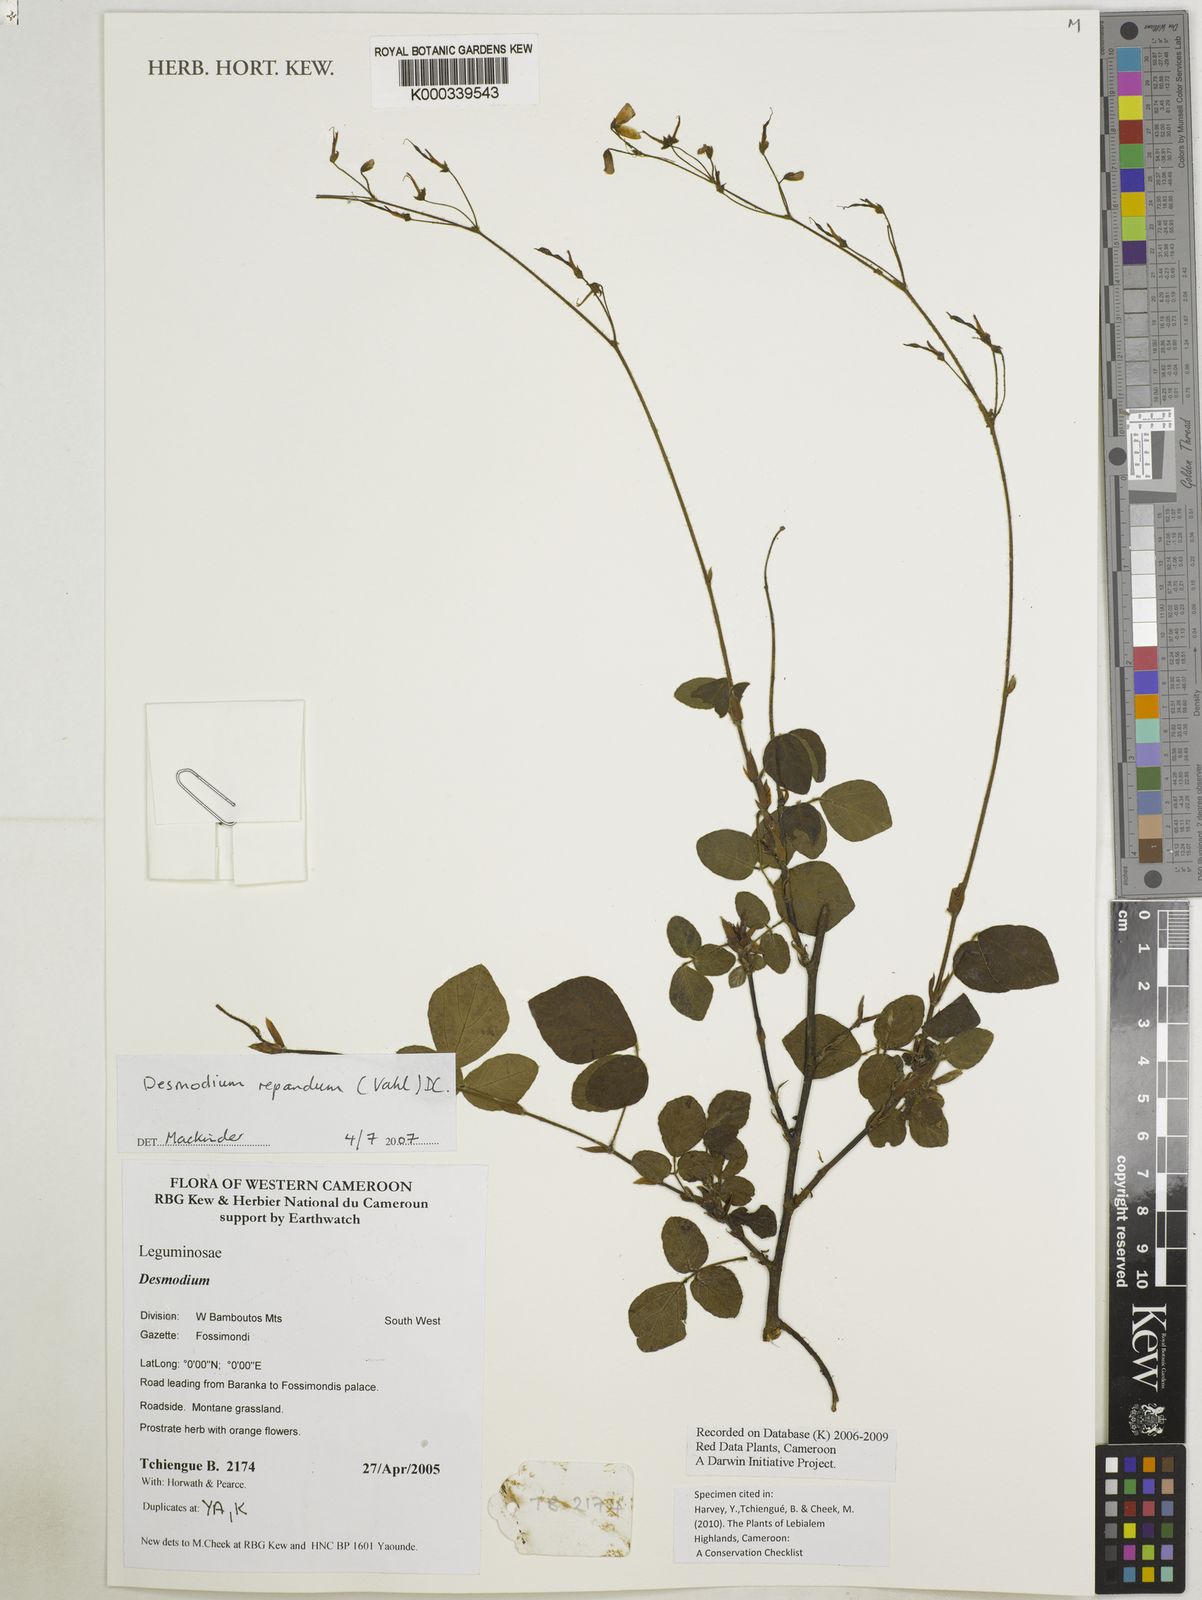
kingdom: Plantae
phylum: Tracheophyta
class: Magnoliopsida
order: Fabales
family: Fabaceae
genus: Desmodium
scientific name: Desmodium
